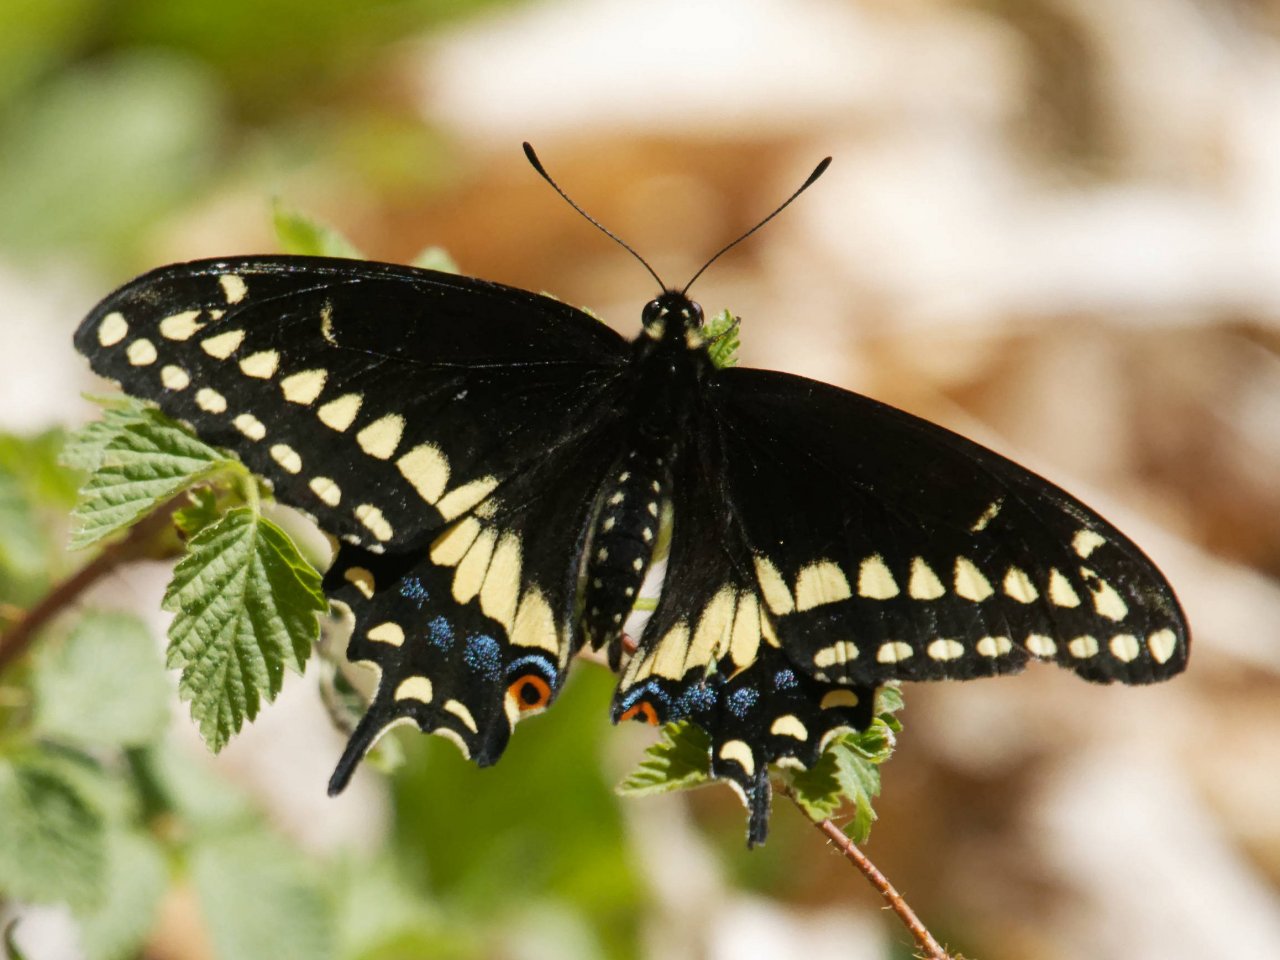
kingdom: Animalia
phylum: Arthropoda
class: Insecta
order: Lepidoptera
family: Papilionidae
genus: Papilio
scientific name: Papilio polyxenes
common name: Black Swallowtail
